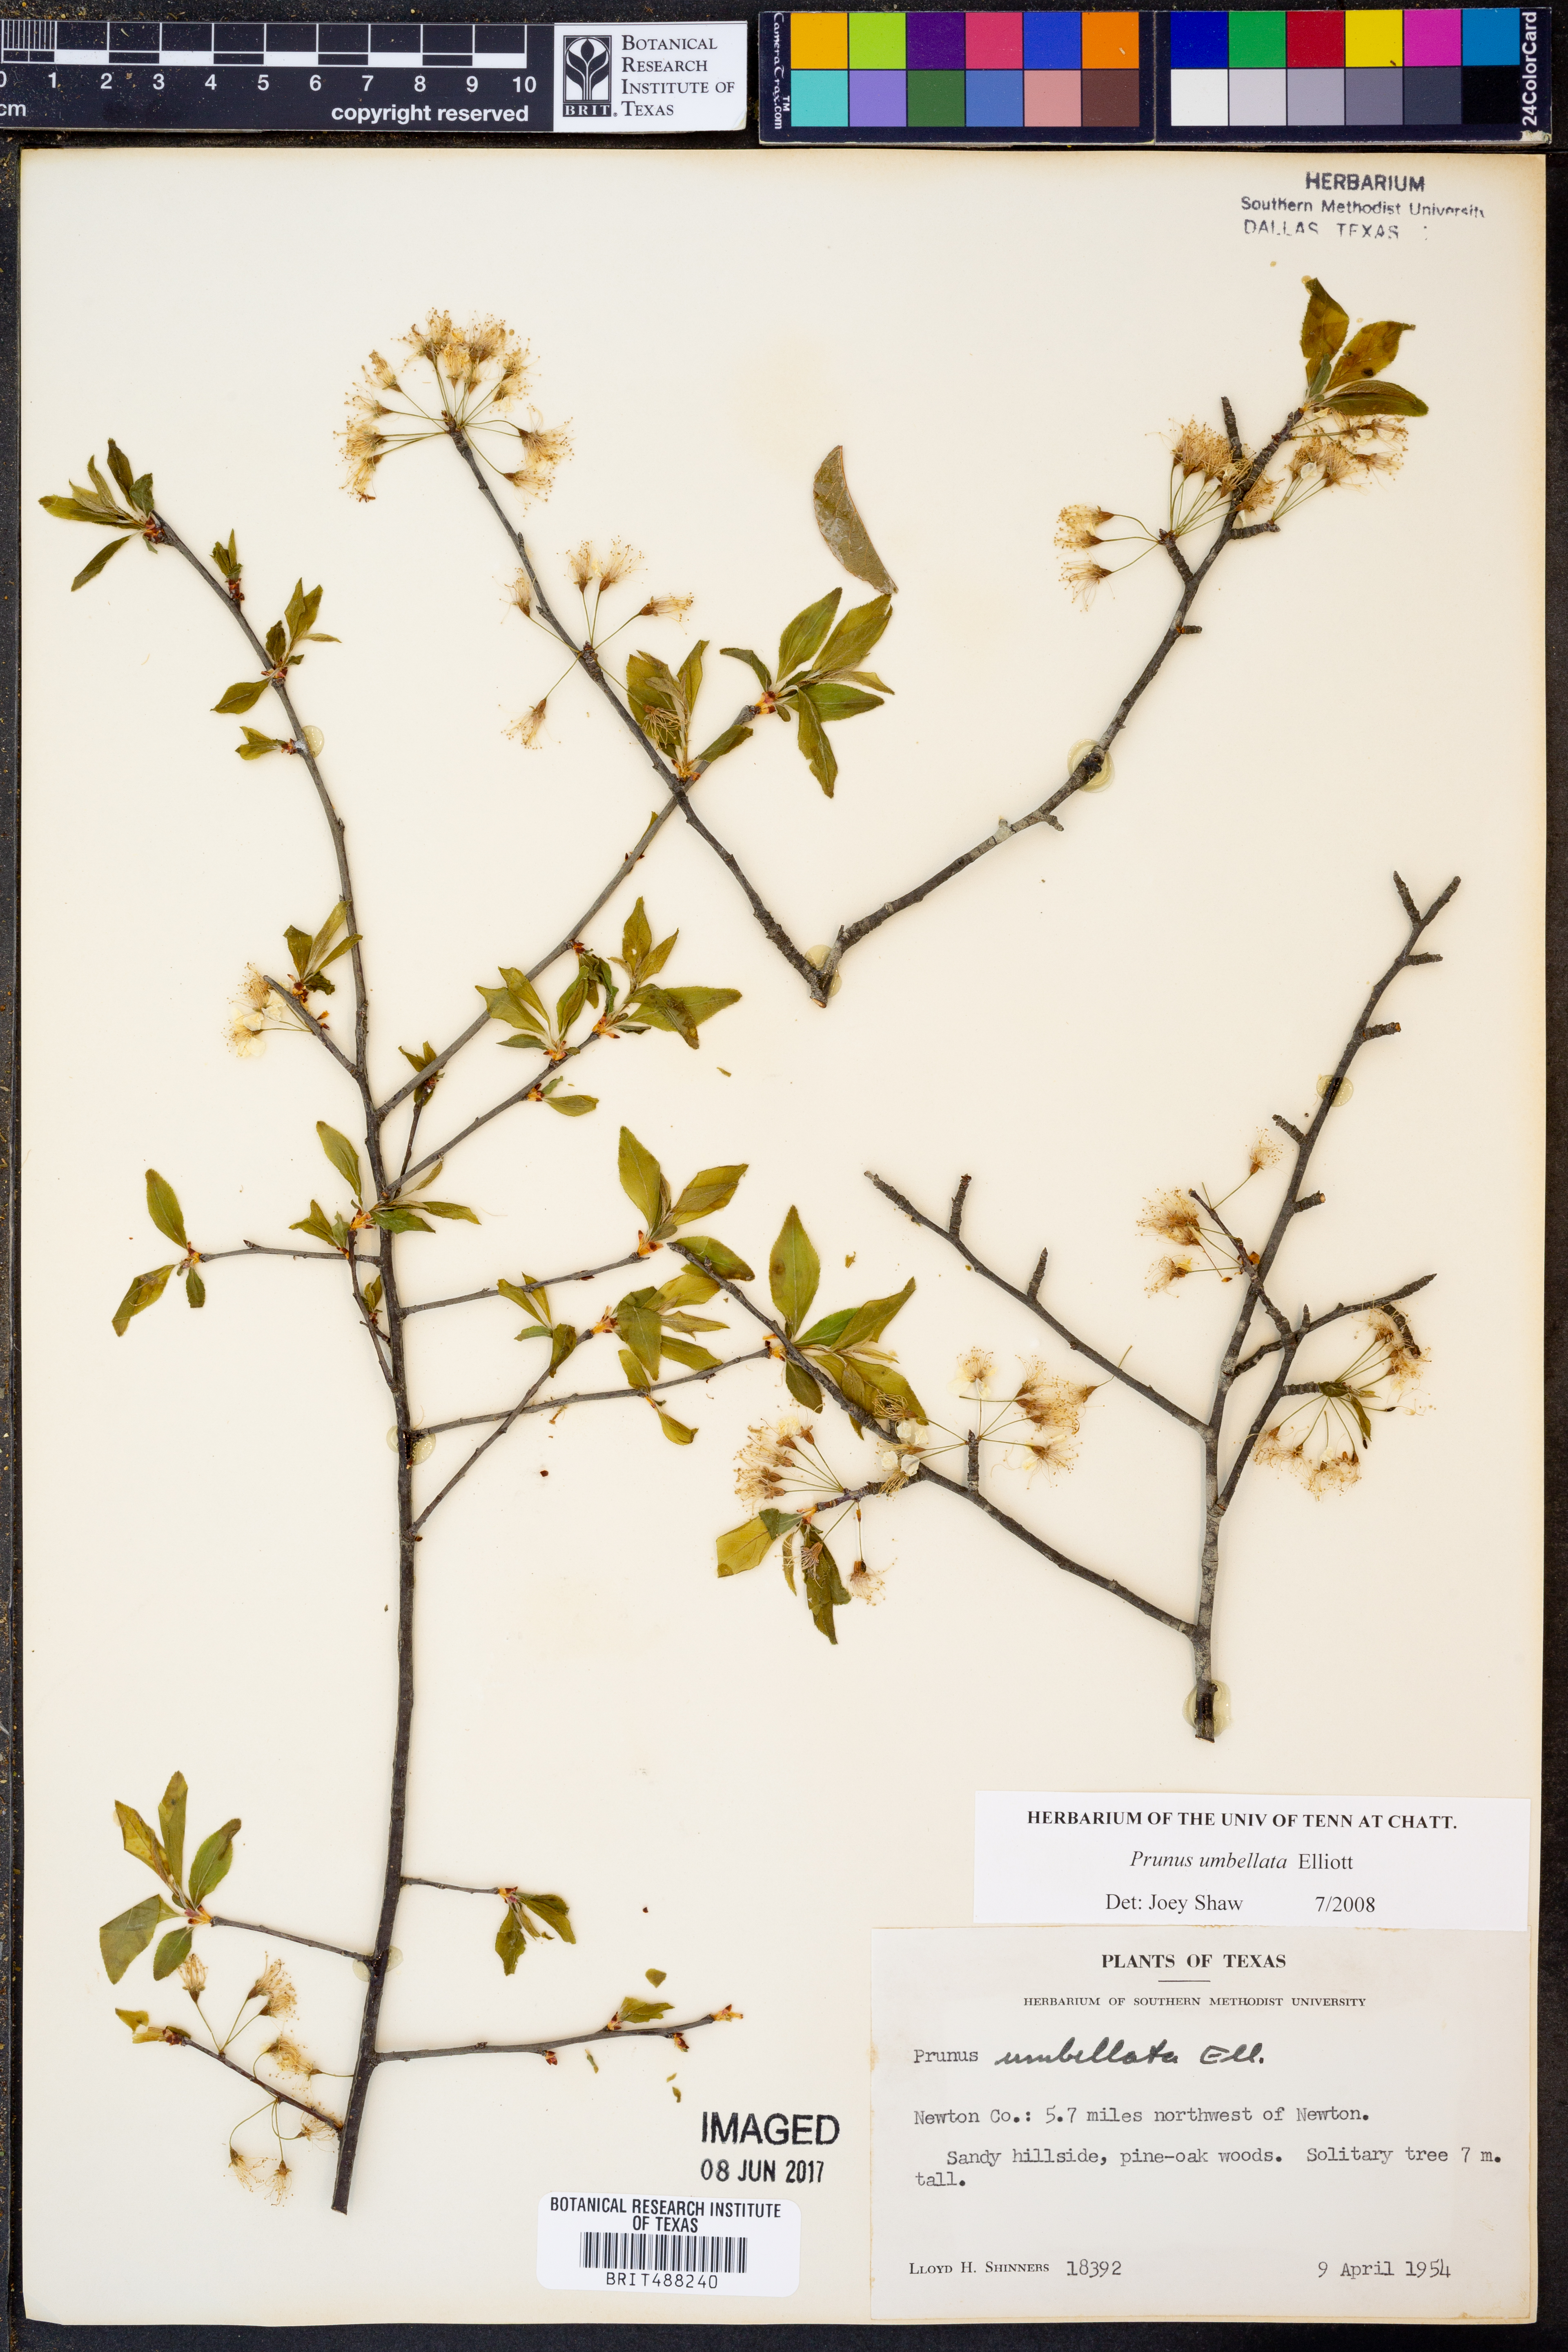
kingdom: Plantae
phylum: Tracheophyta
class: Magnoliopsida
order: Rosales
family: Rosaceae
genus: Prunus
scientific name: Prunus umbellata
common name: Allegheny plum
